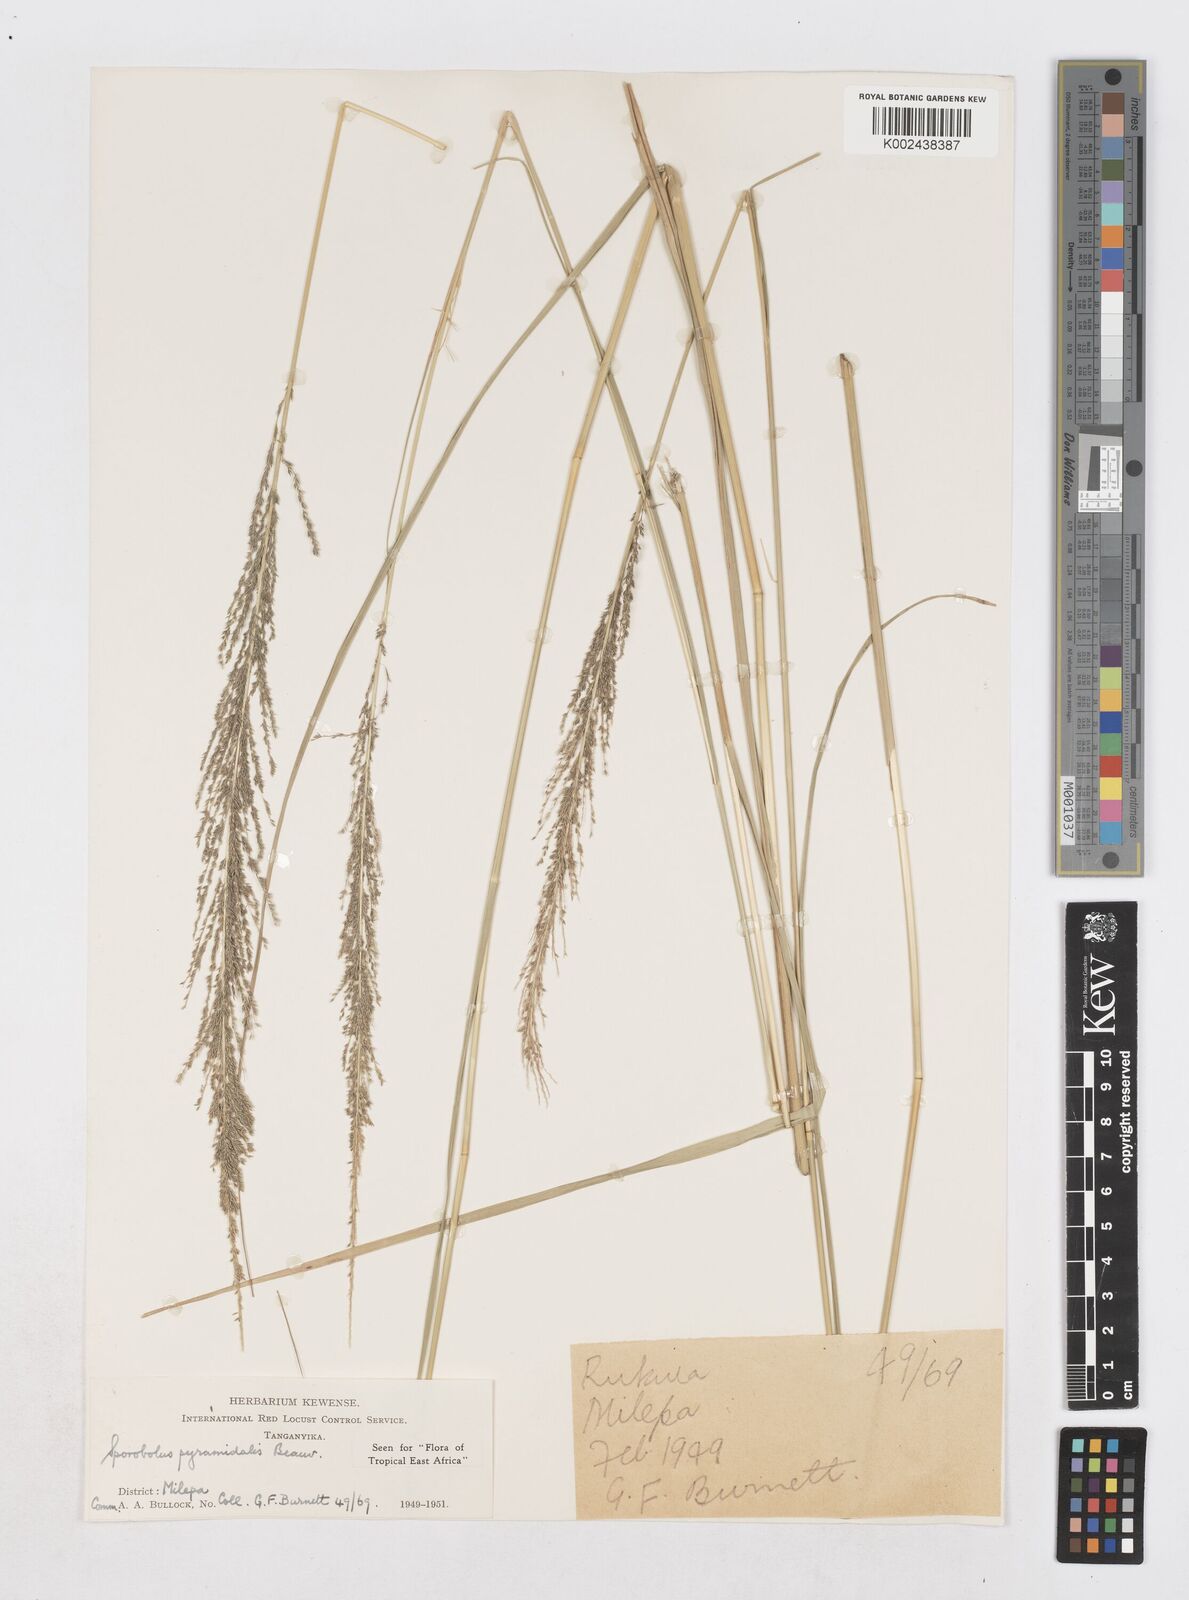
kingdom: Plantae
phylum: Tracheophyta
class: Liliopsida
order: Poales
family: Poaceae
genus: Sporobolus
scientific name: Sporobolus pyramidalis
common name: West indian dropseed
